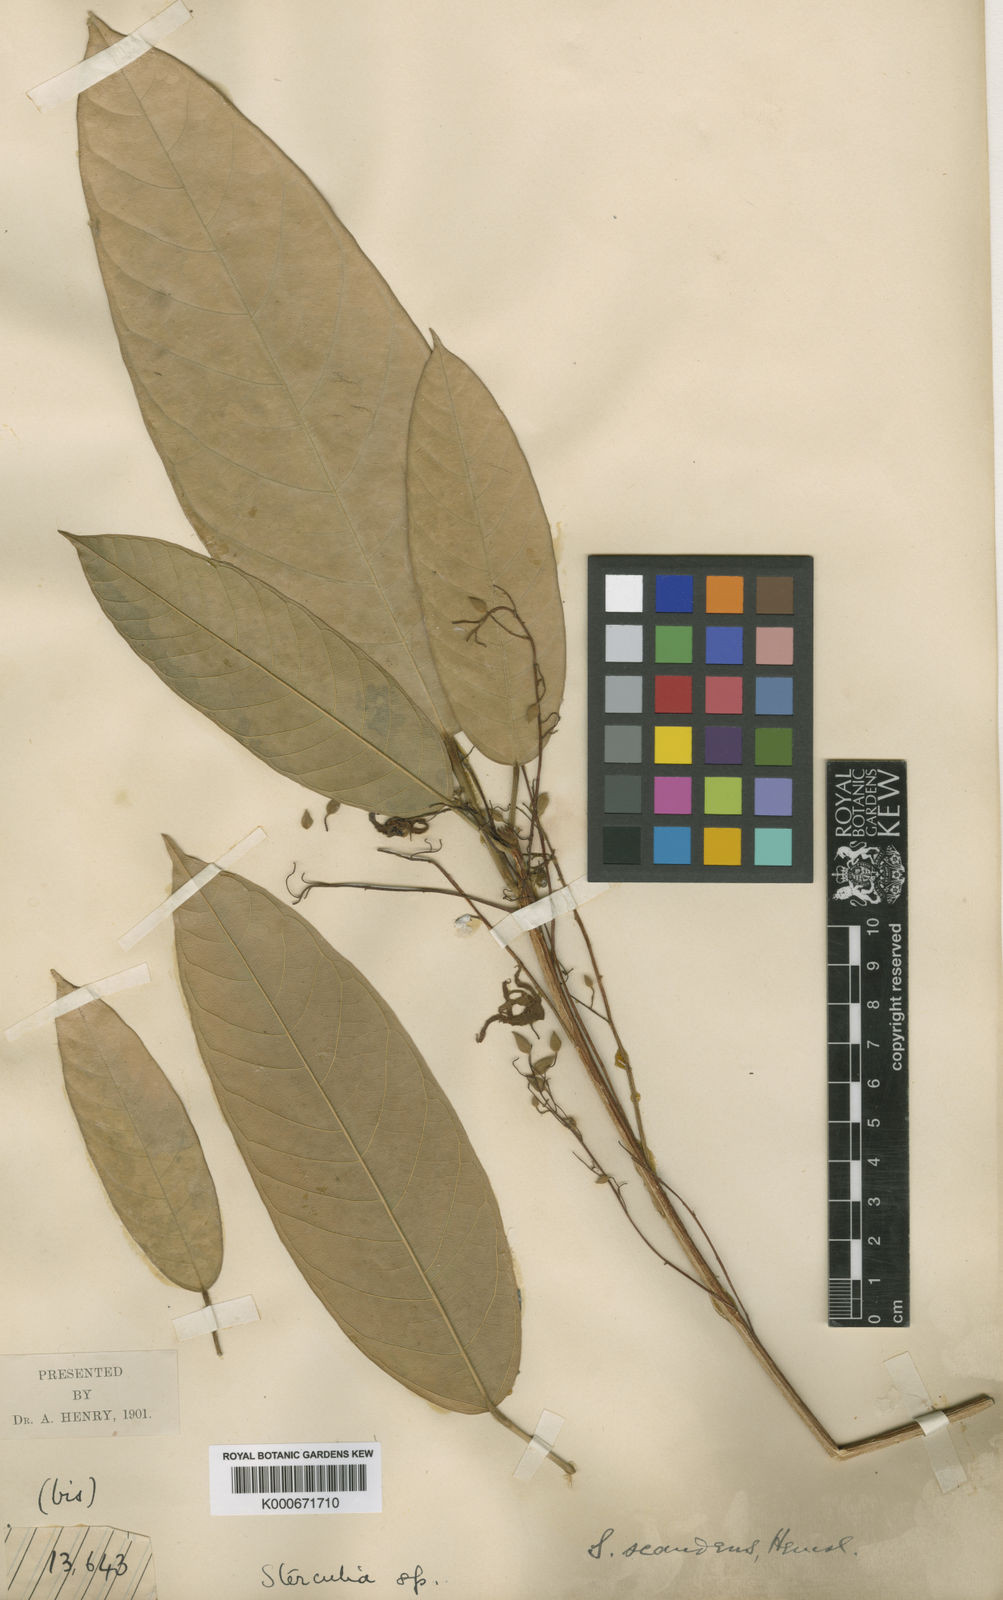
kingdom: Plantae
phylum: Tracheophyta
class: Magnoliopsida
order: Malvales
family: Malvaceae
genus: Sterculia
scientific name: Sterculia scandens
